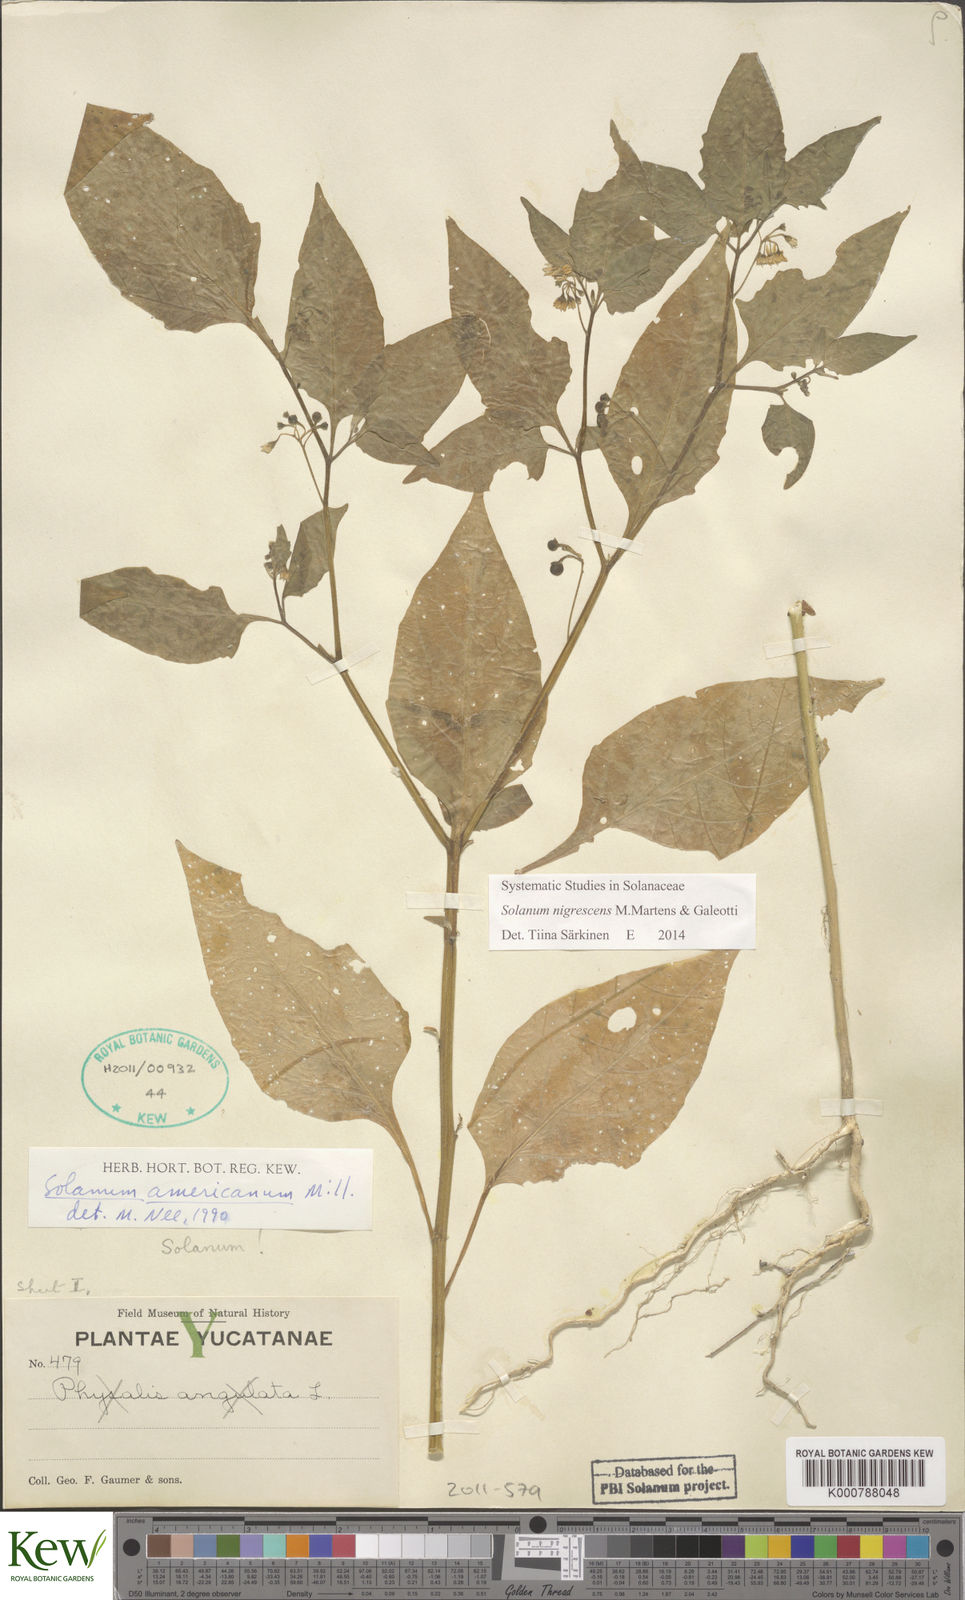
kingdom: Plantae
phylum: Tracheophyta
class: Magnoliopsida
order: Solanales
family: Solanaceae
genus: Solanum
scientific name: Solanum nigrescens
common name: Divine nightshade
